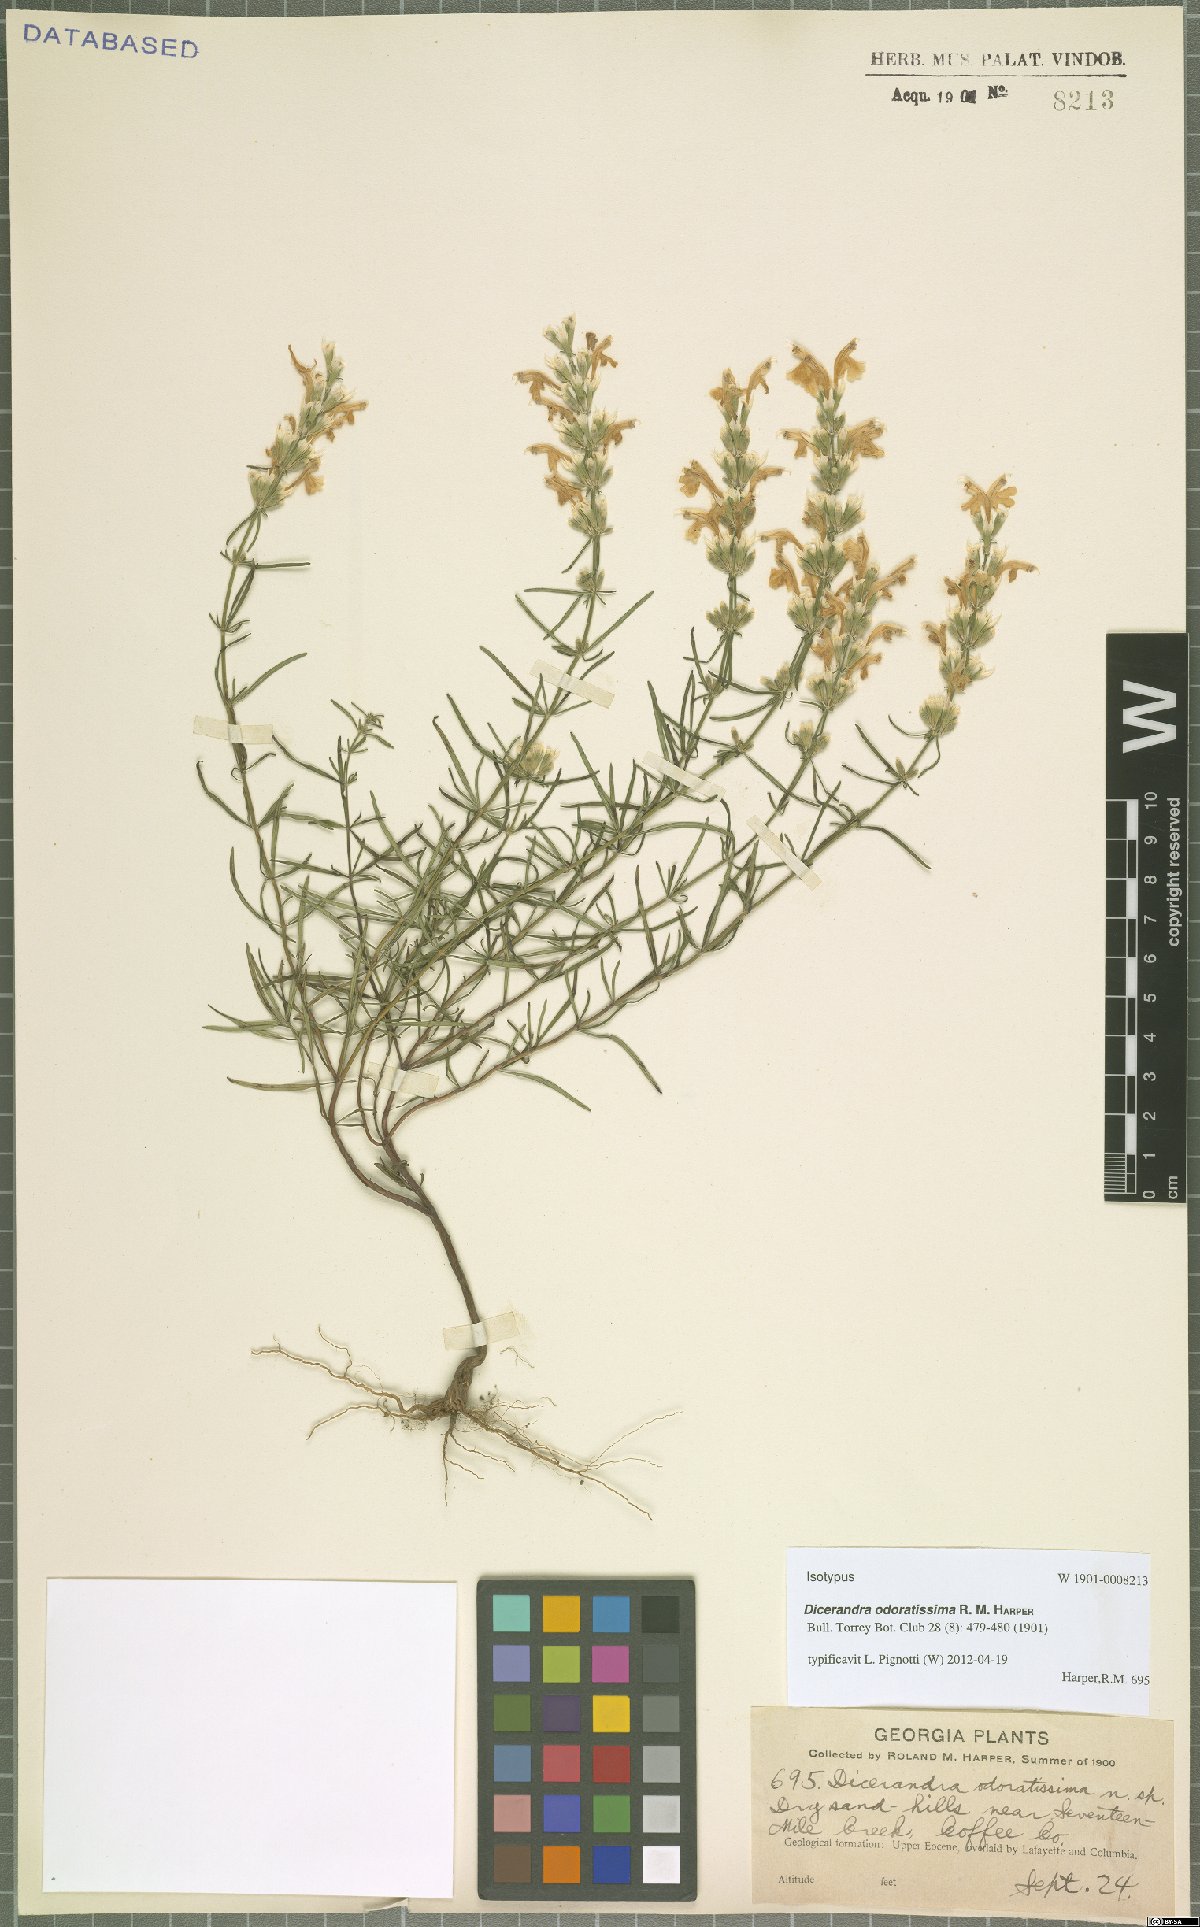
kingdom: Plantae
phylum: Tracheophyta
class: Magnoliopsida
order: Lamiales
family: Lamiaceae
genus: Dicerandra
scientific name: Dicerandra odoratissima
